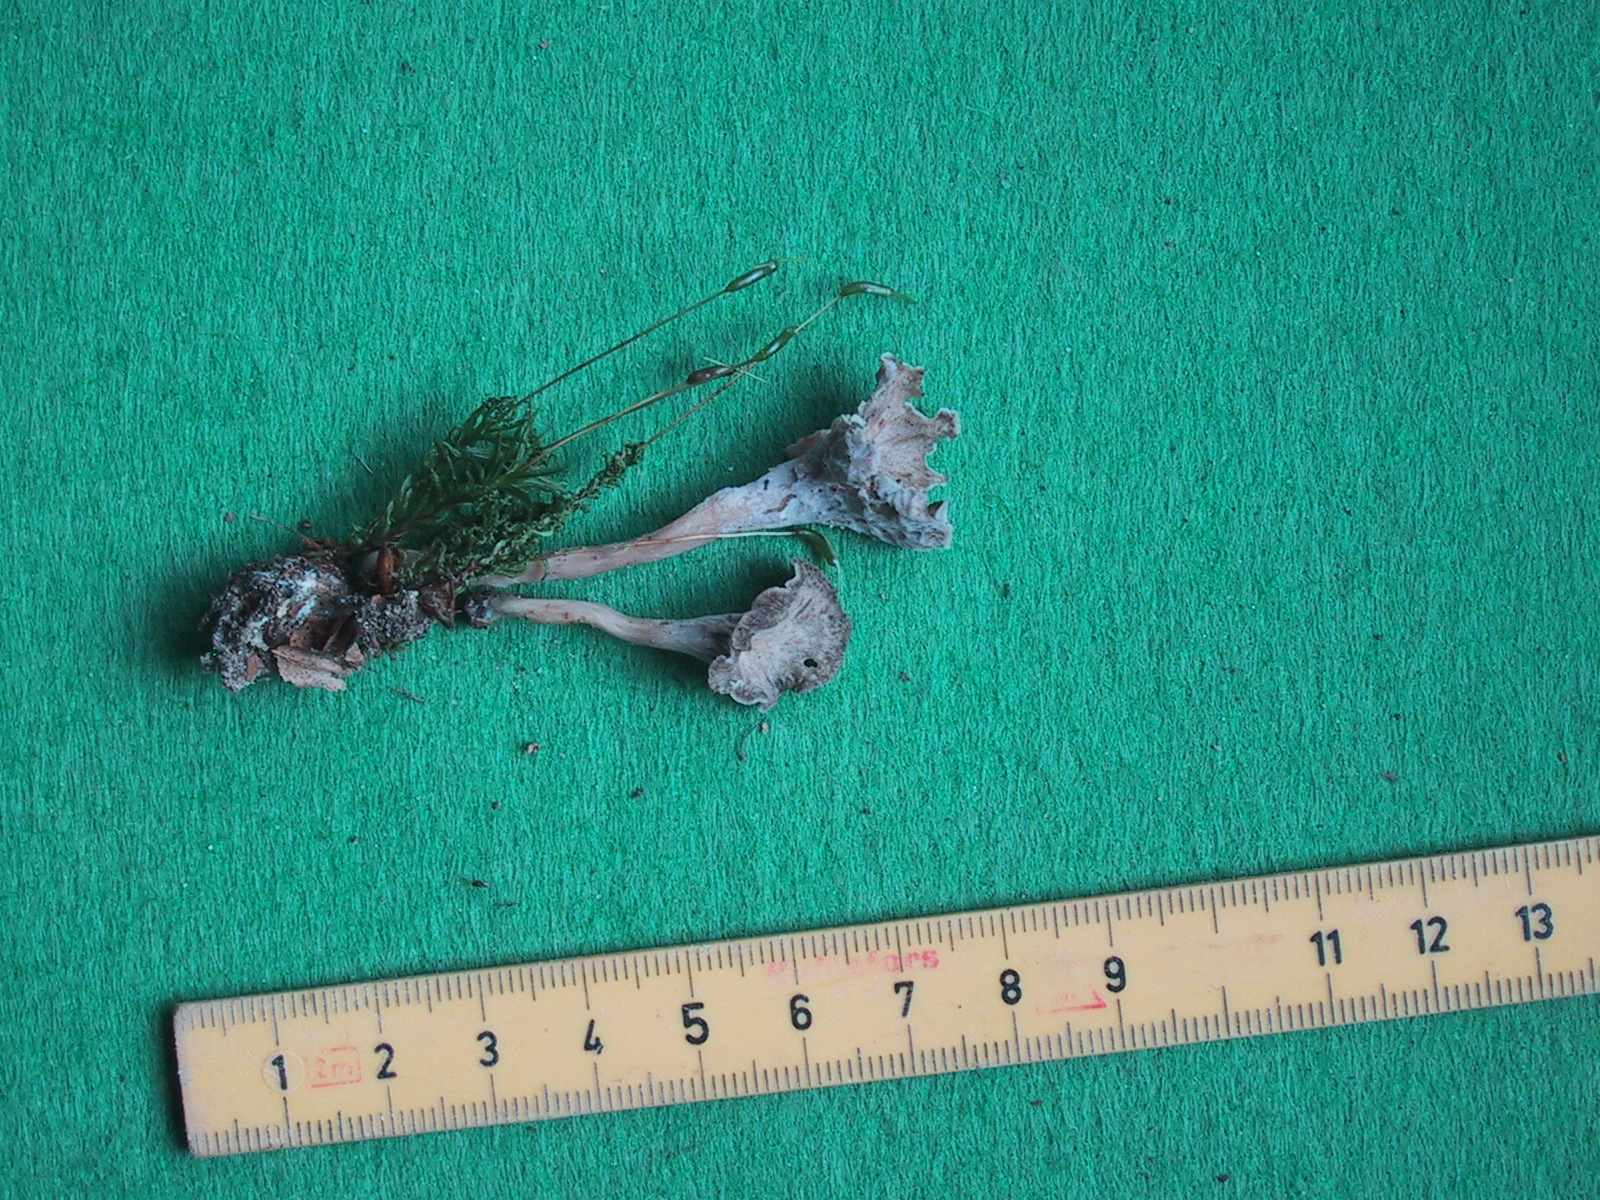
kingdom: Fungi
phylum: Basidiomycota
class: Agaricomycetes
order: Cantharellales
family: Hydnaceae
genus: Craterellus
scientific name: Craterellus undulatus
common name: liden kantarel
